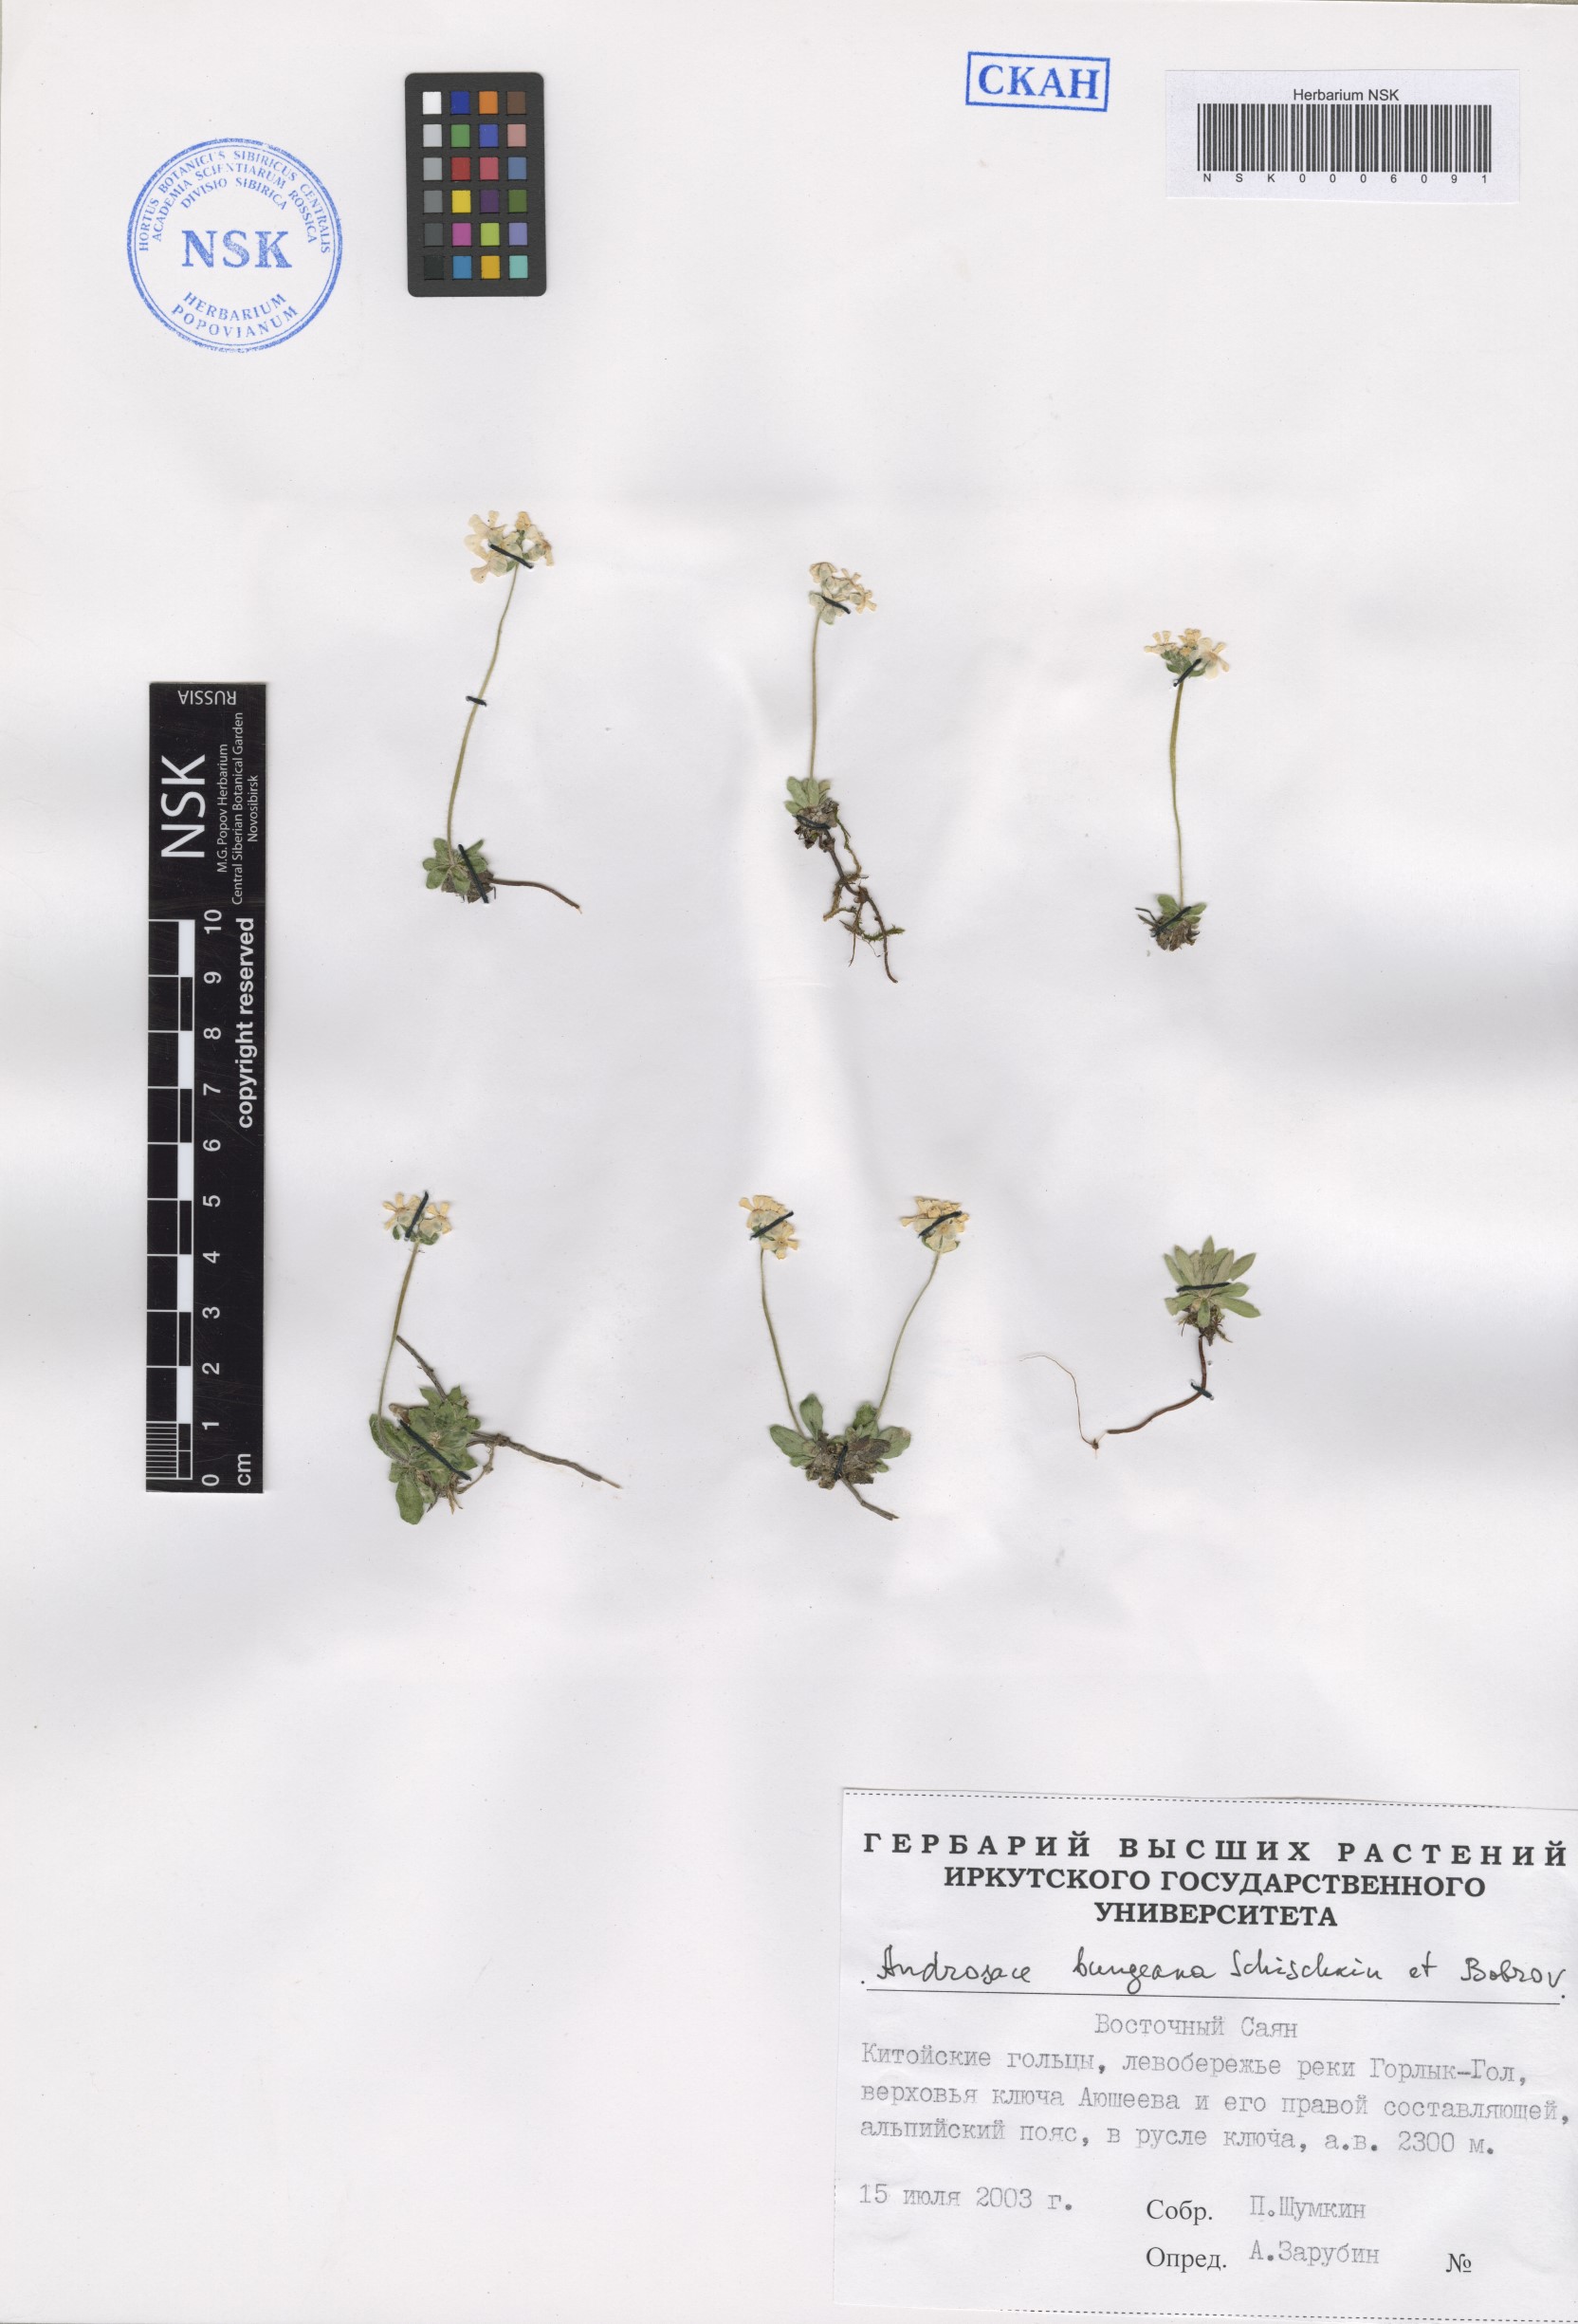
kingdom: Plantae
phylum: Tracheophyta
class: Magnoliopsida
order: Ericales
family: Primulaceae
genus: Androsace
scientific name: Androsace bungeana
